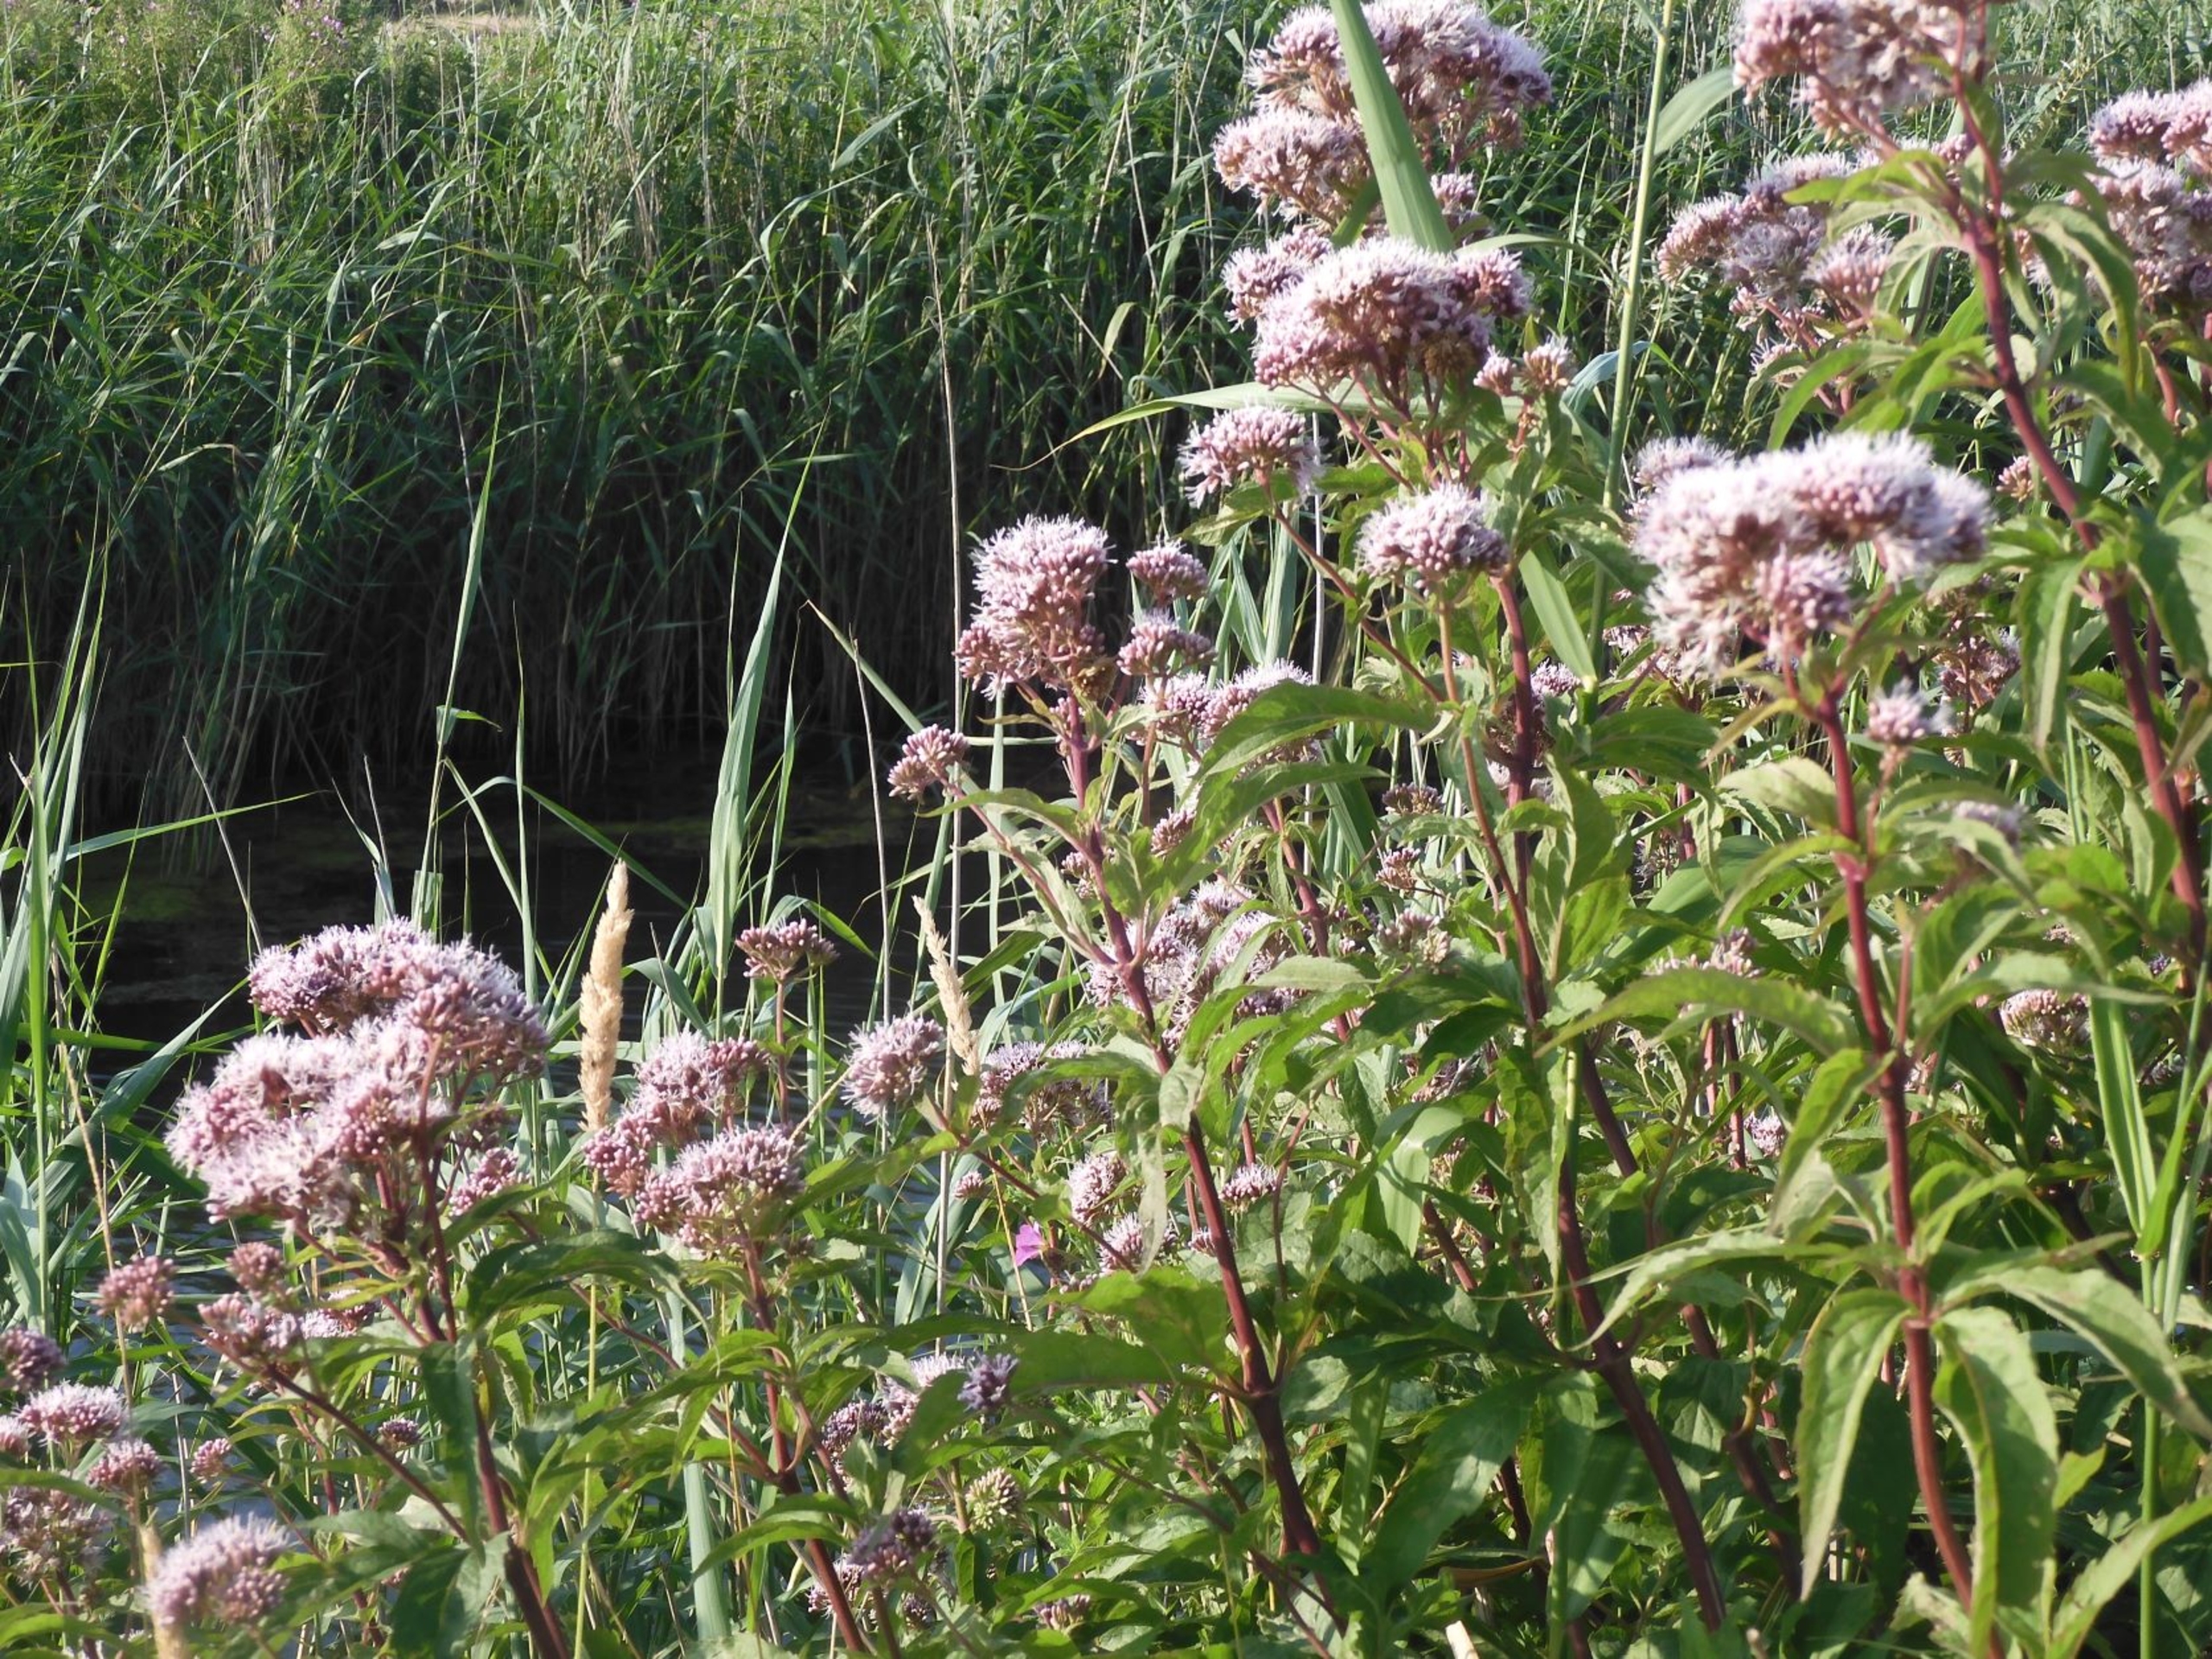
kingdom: Plantae
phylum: Tracheophyta
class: Magnoliopsida
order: Asterales
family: Asteraceae
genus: Eupatorium
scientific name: Eupatorium cannabinum
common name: Hjortetrøst
